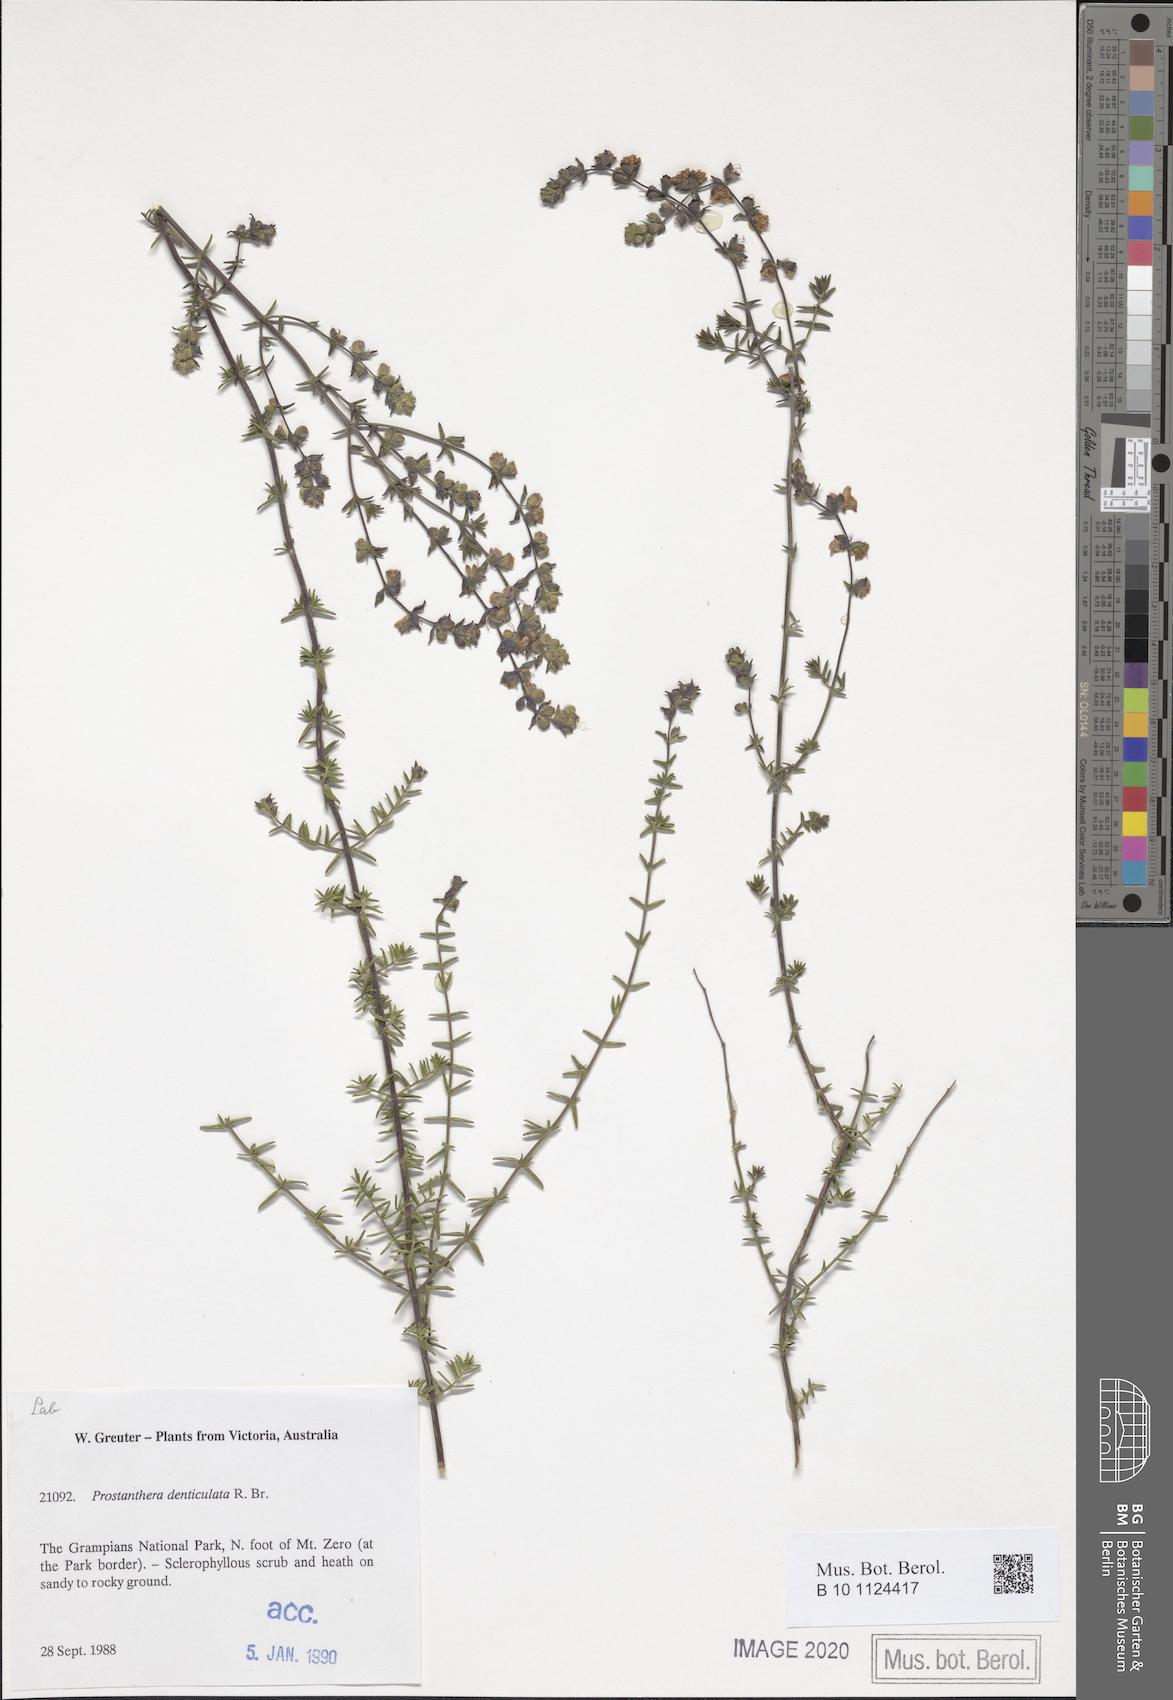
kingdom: Plantae
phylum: Tracheophyta
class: Magnoliopsida
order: Lamiales
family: Lamiaceae
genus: Prostanthera
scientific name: Prostanthera denticulata
